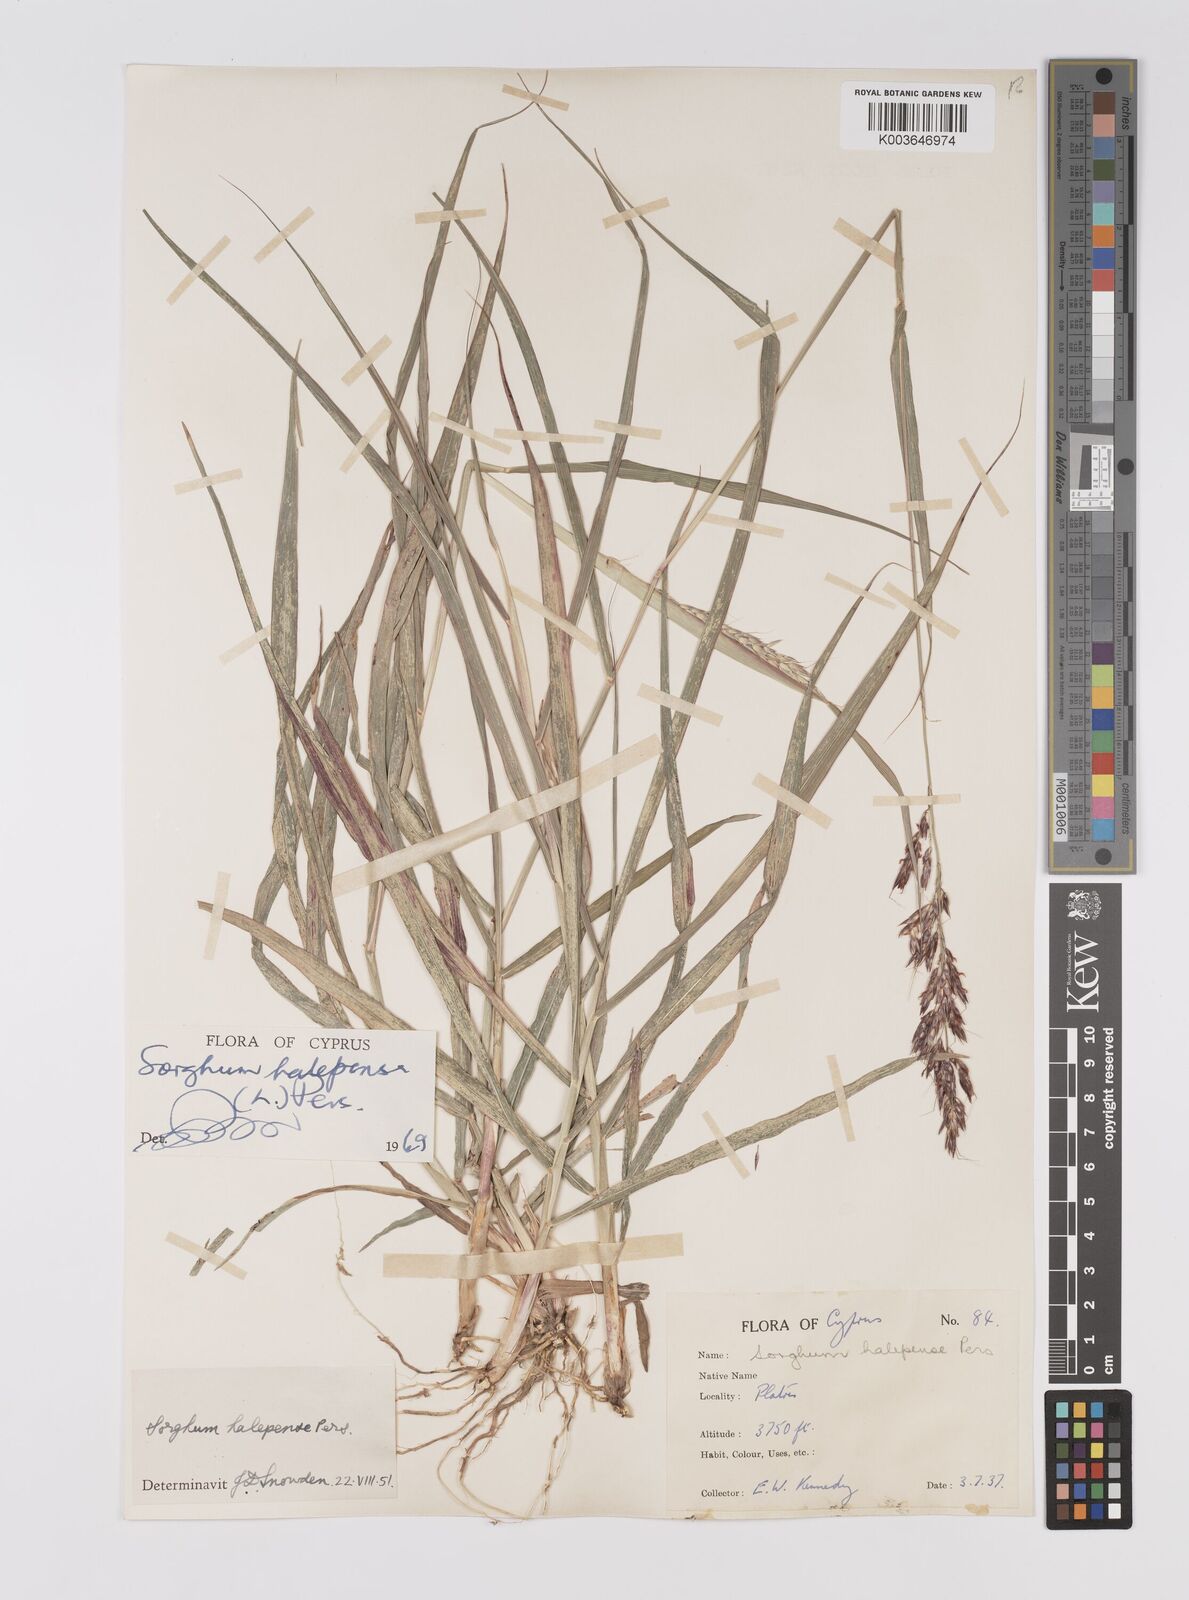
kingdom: Plantae
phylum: Tracheophyta
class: Liliopsida
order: Poales
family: Poaceae
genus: Sorghum
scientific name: Sorghum halepense
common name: Johnson-grass
